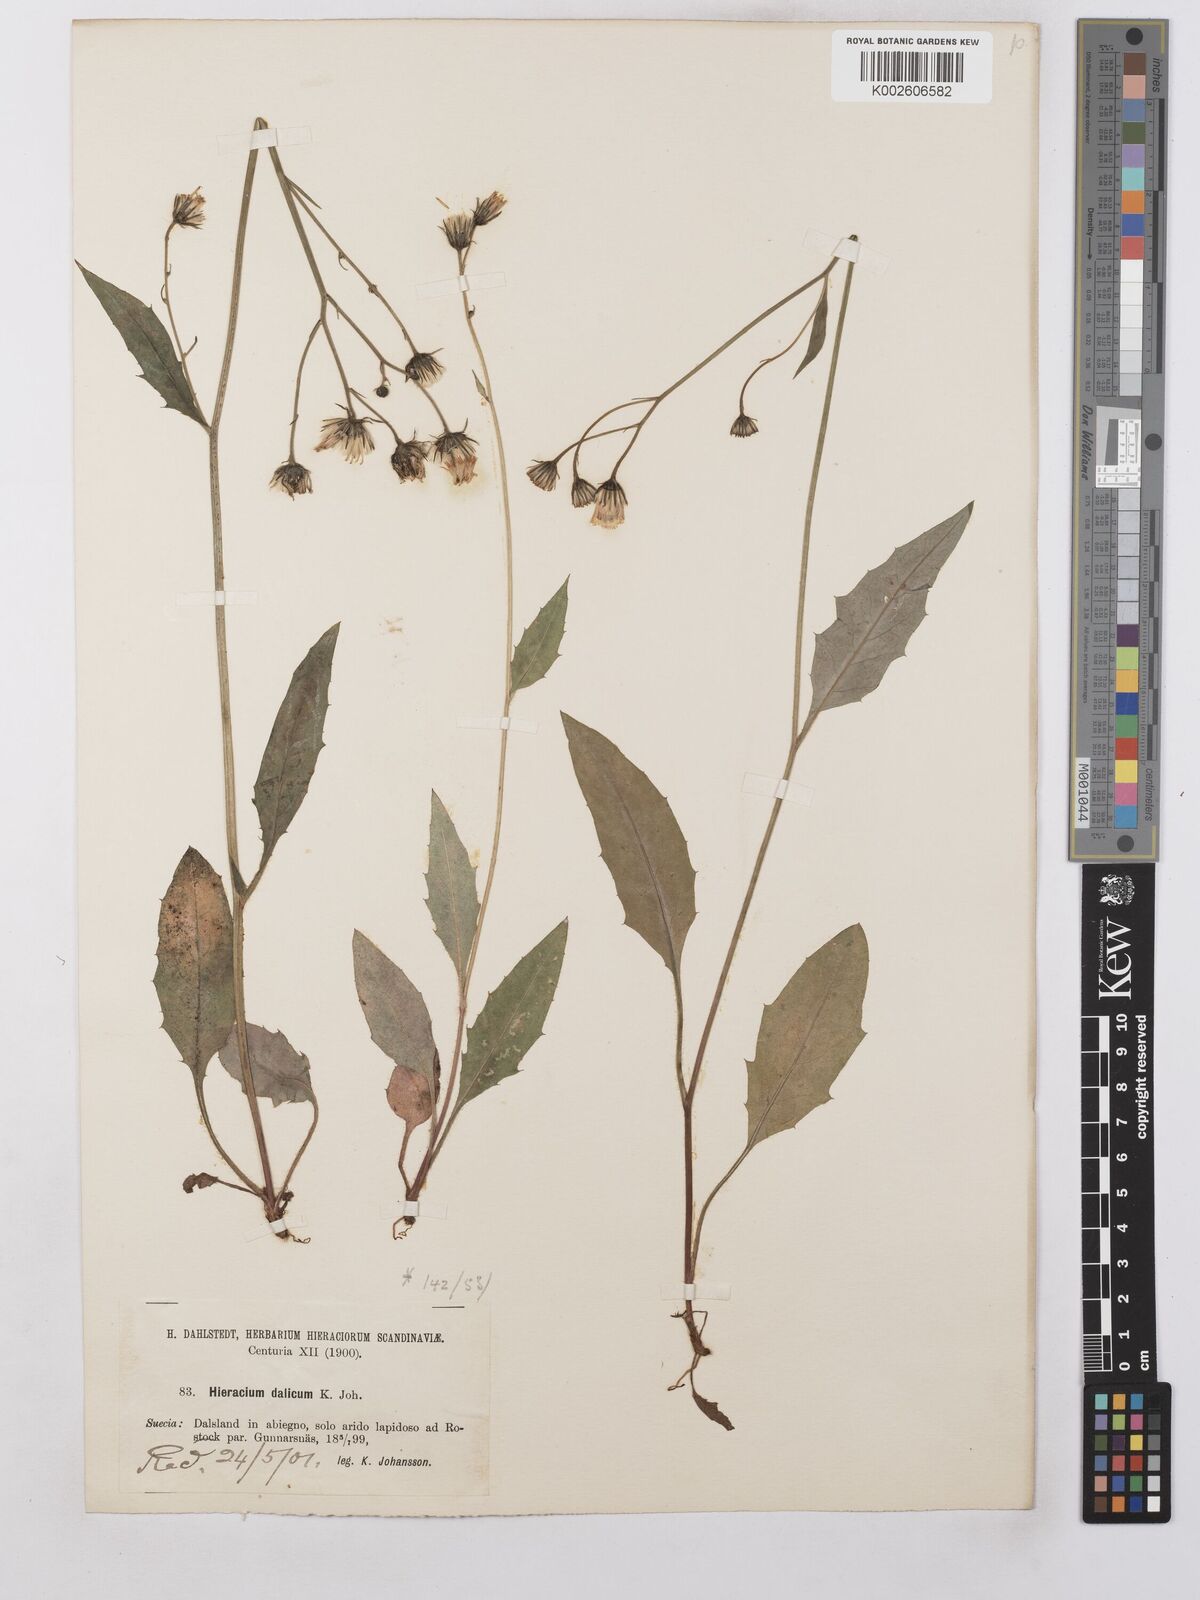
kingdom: Plantae
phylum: Tracheophyta
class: Magnoliopsida
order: Asterales
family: Asteraceae
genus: Hieracium
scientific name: Hieracium lachenalii
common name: Common hawkweed
